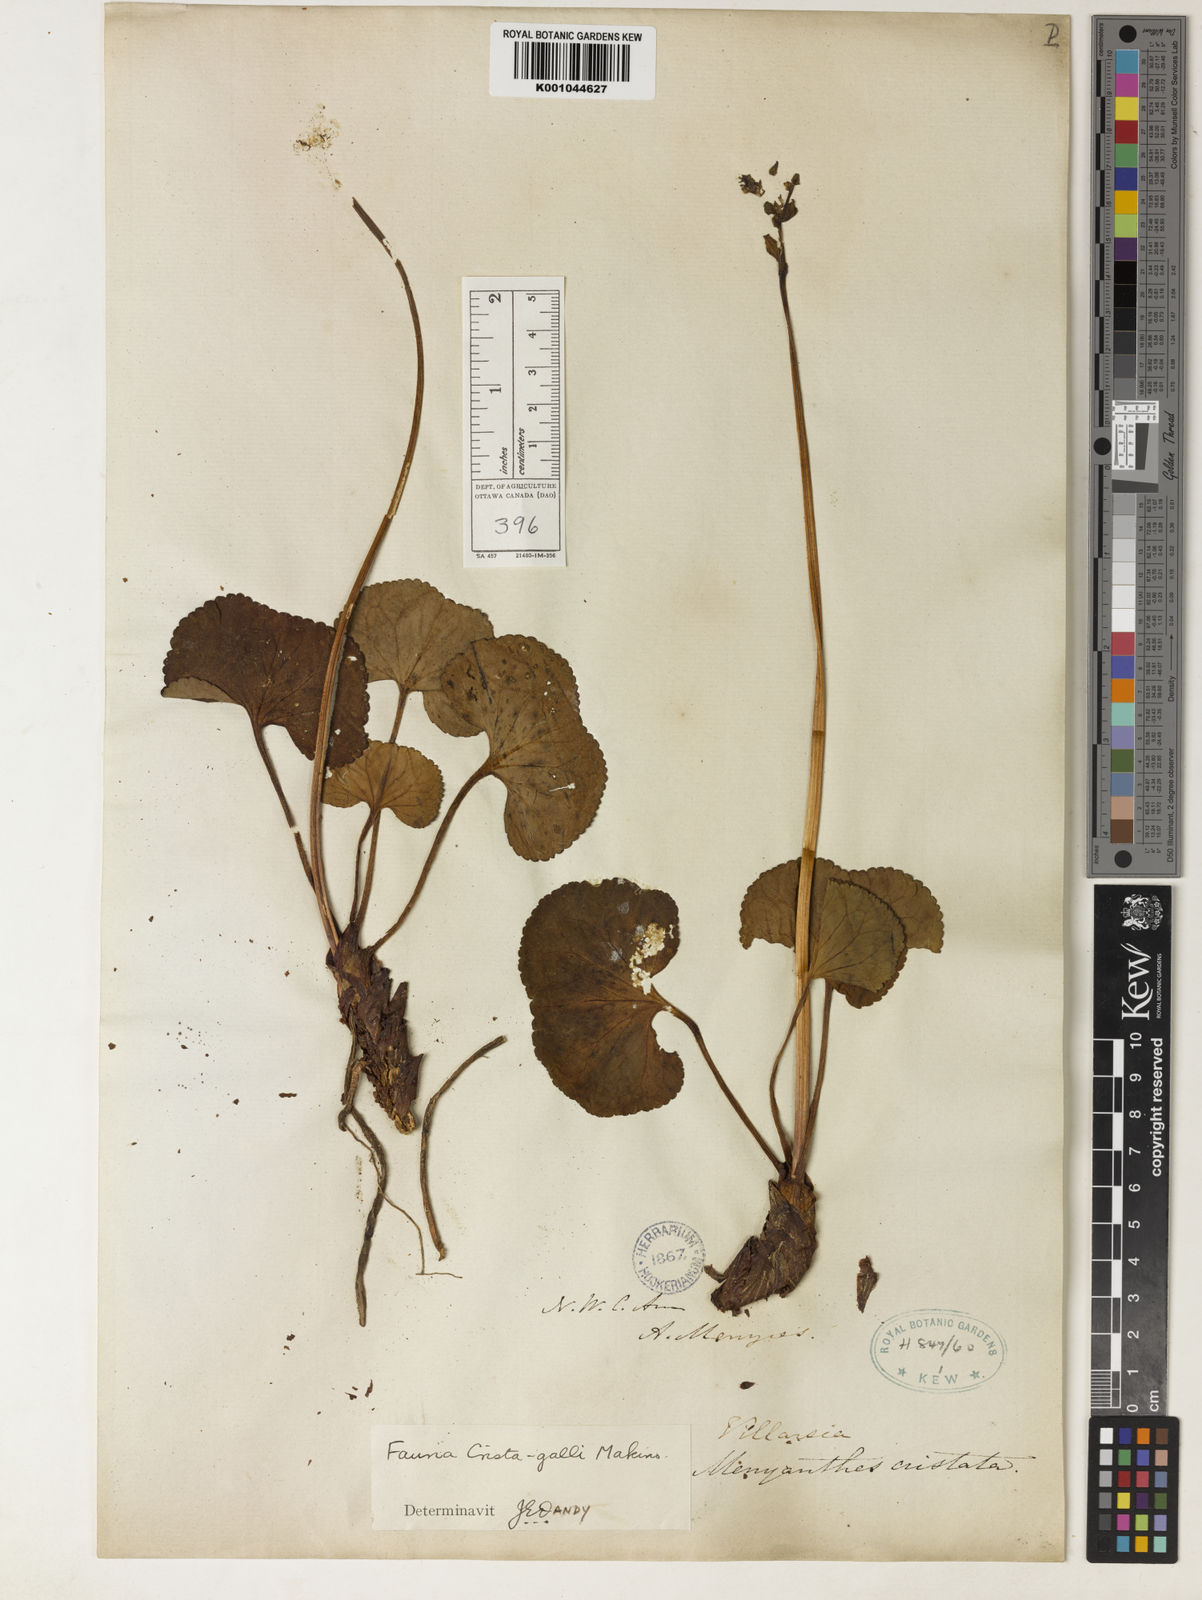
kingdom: Plantae
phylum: Tracheophyta
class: Magnoliopsida
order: Asterales
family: Menyanthaceae
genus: Nephrophyllidium
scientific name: Nephrophyllidium crista-galli
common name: Deer-cabbage
